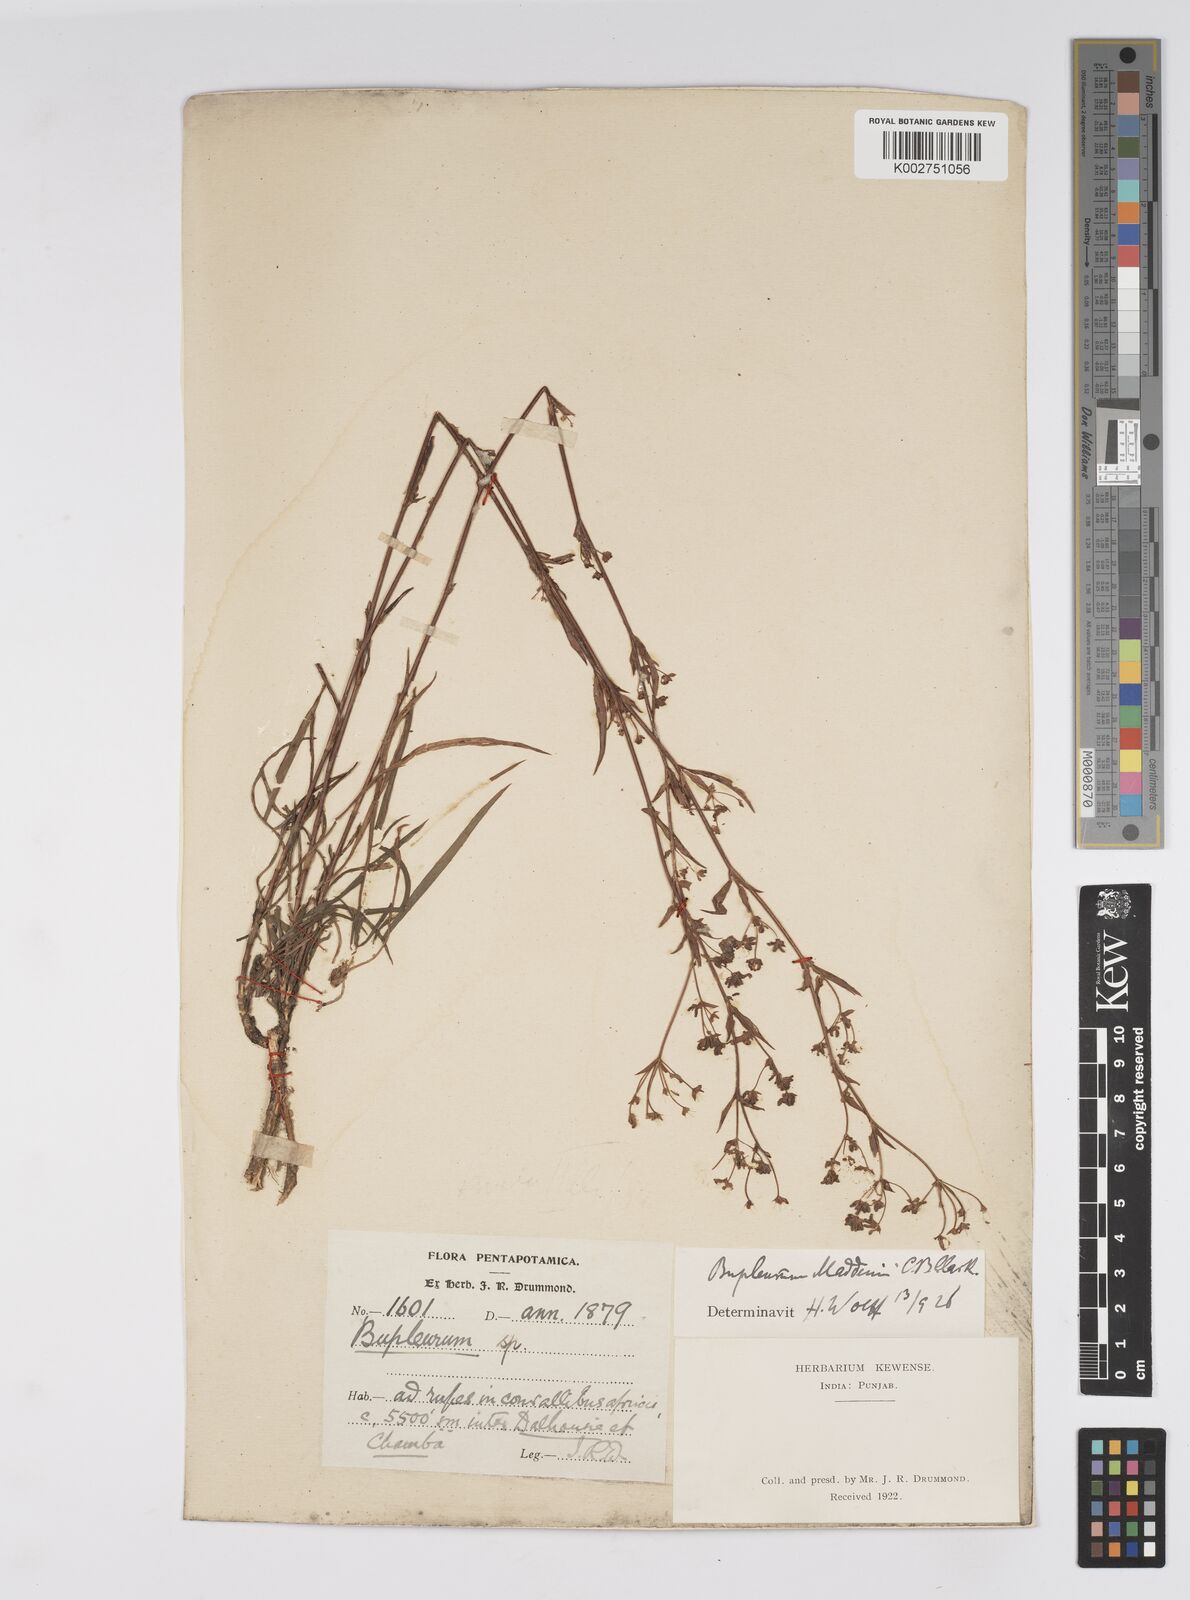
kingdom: Plantae
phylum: Tracheophyta
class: Magnoliopsida
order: Apiales
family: Apiaceae
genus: Bupleurum
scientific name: Bupleurum maddenii
